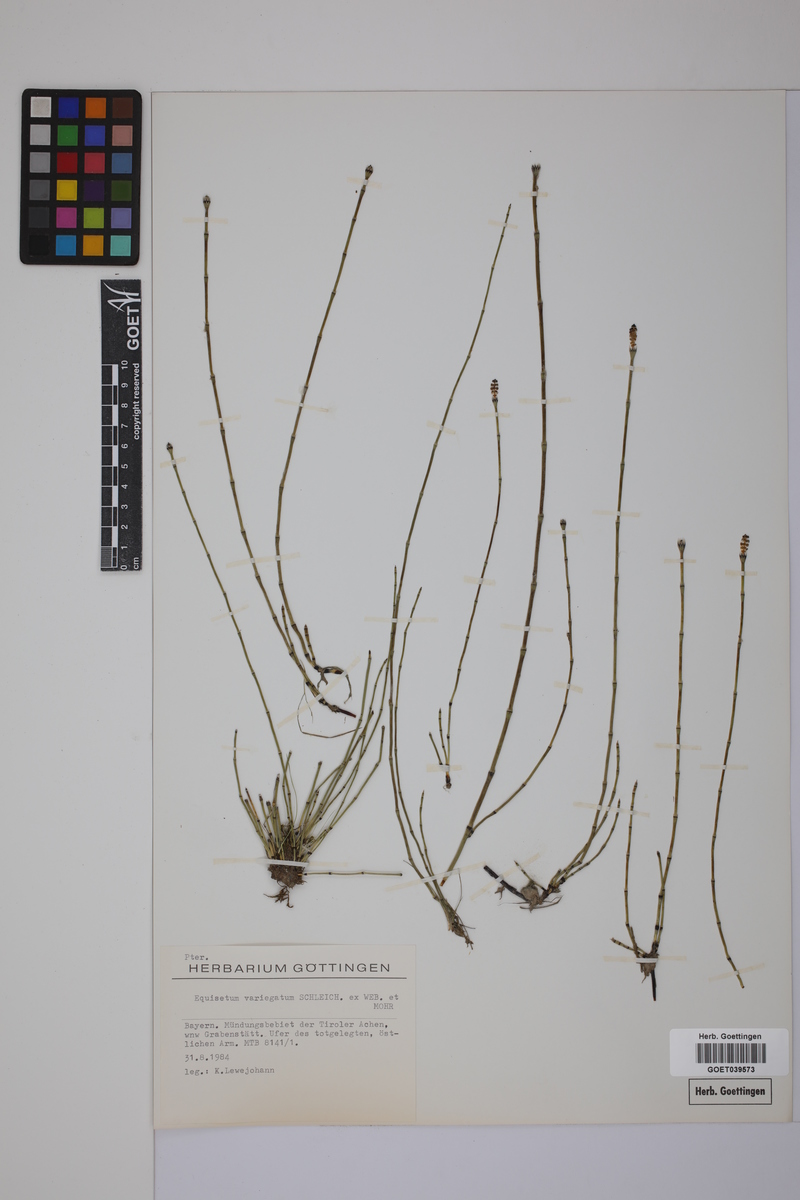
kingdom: Plantae
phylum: Tracheophyta
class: Polypodiopsida
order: Equisetales
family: Equisetaceae
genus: Equisetum
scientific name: Equisetum variegatum
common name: Variegated horsetail
